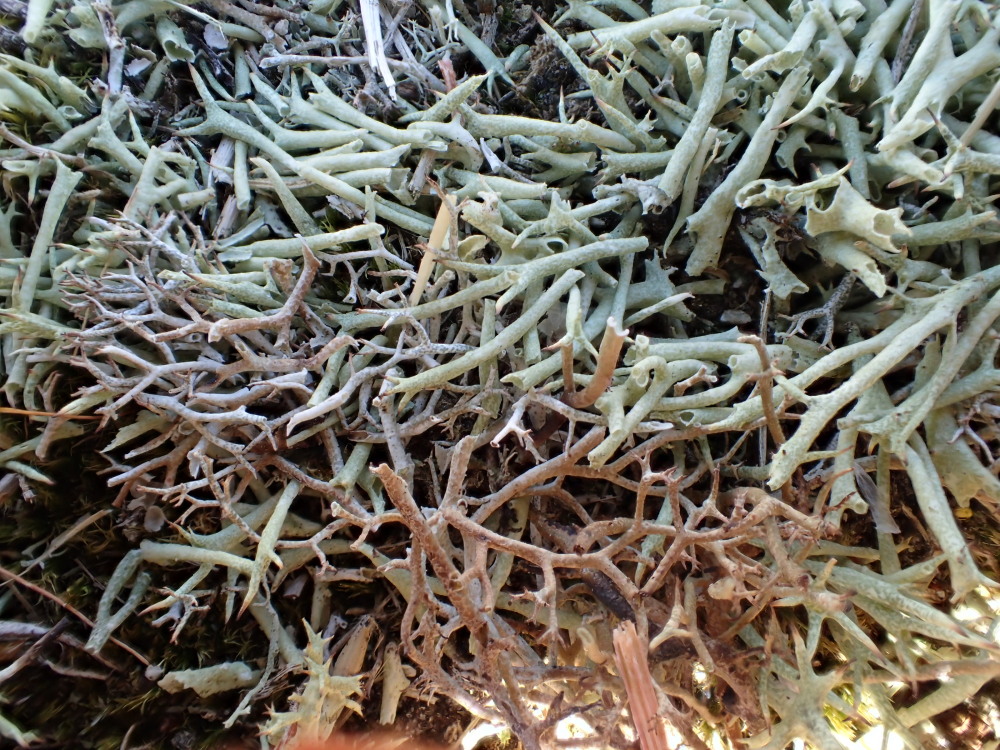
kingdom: Fungi
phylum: Ascomycota
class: Lecanoromycetes
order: Lecanorales
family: Cladoniaceae
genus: Cladonia
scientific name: Cladonia uncialis
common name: pigget bægerlav
